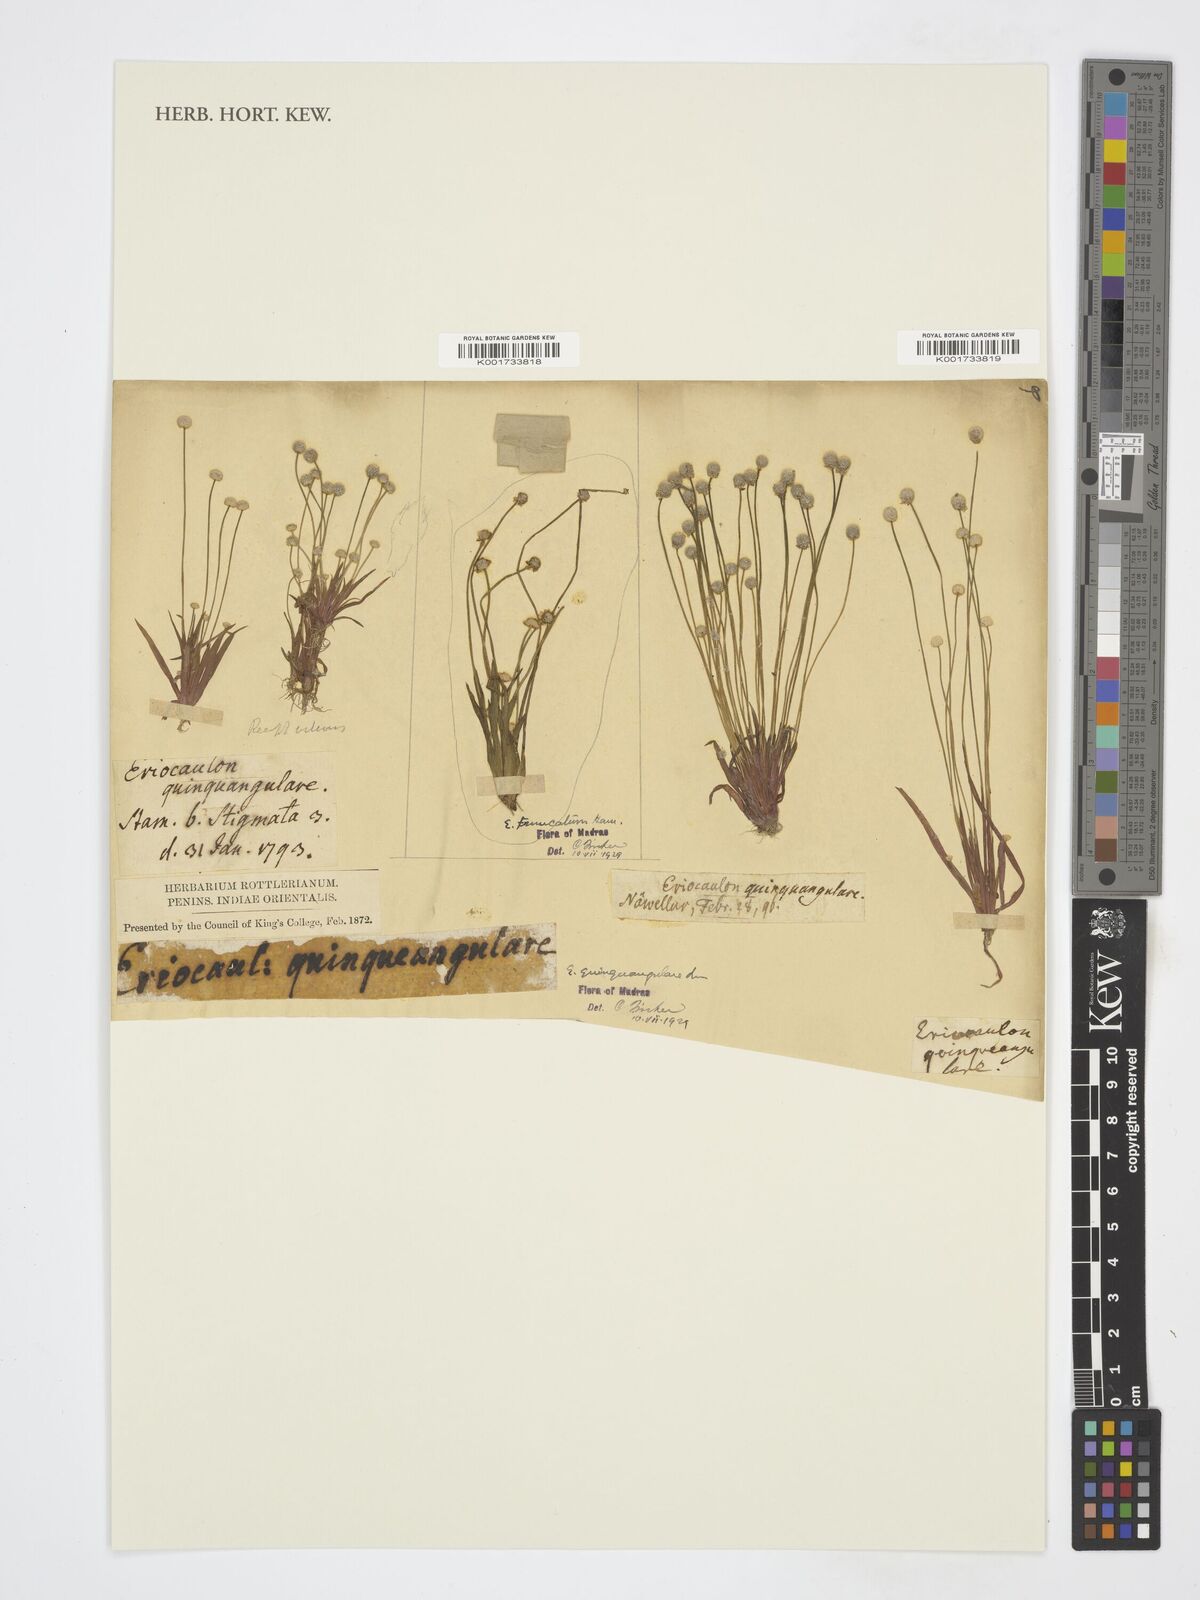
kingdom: Plantae
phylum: Tracheophyta
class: Liliopsida
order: Poales
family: Eriocaulaceae
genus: Eriocaulon
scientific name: Eriocaulon quinquangulare
